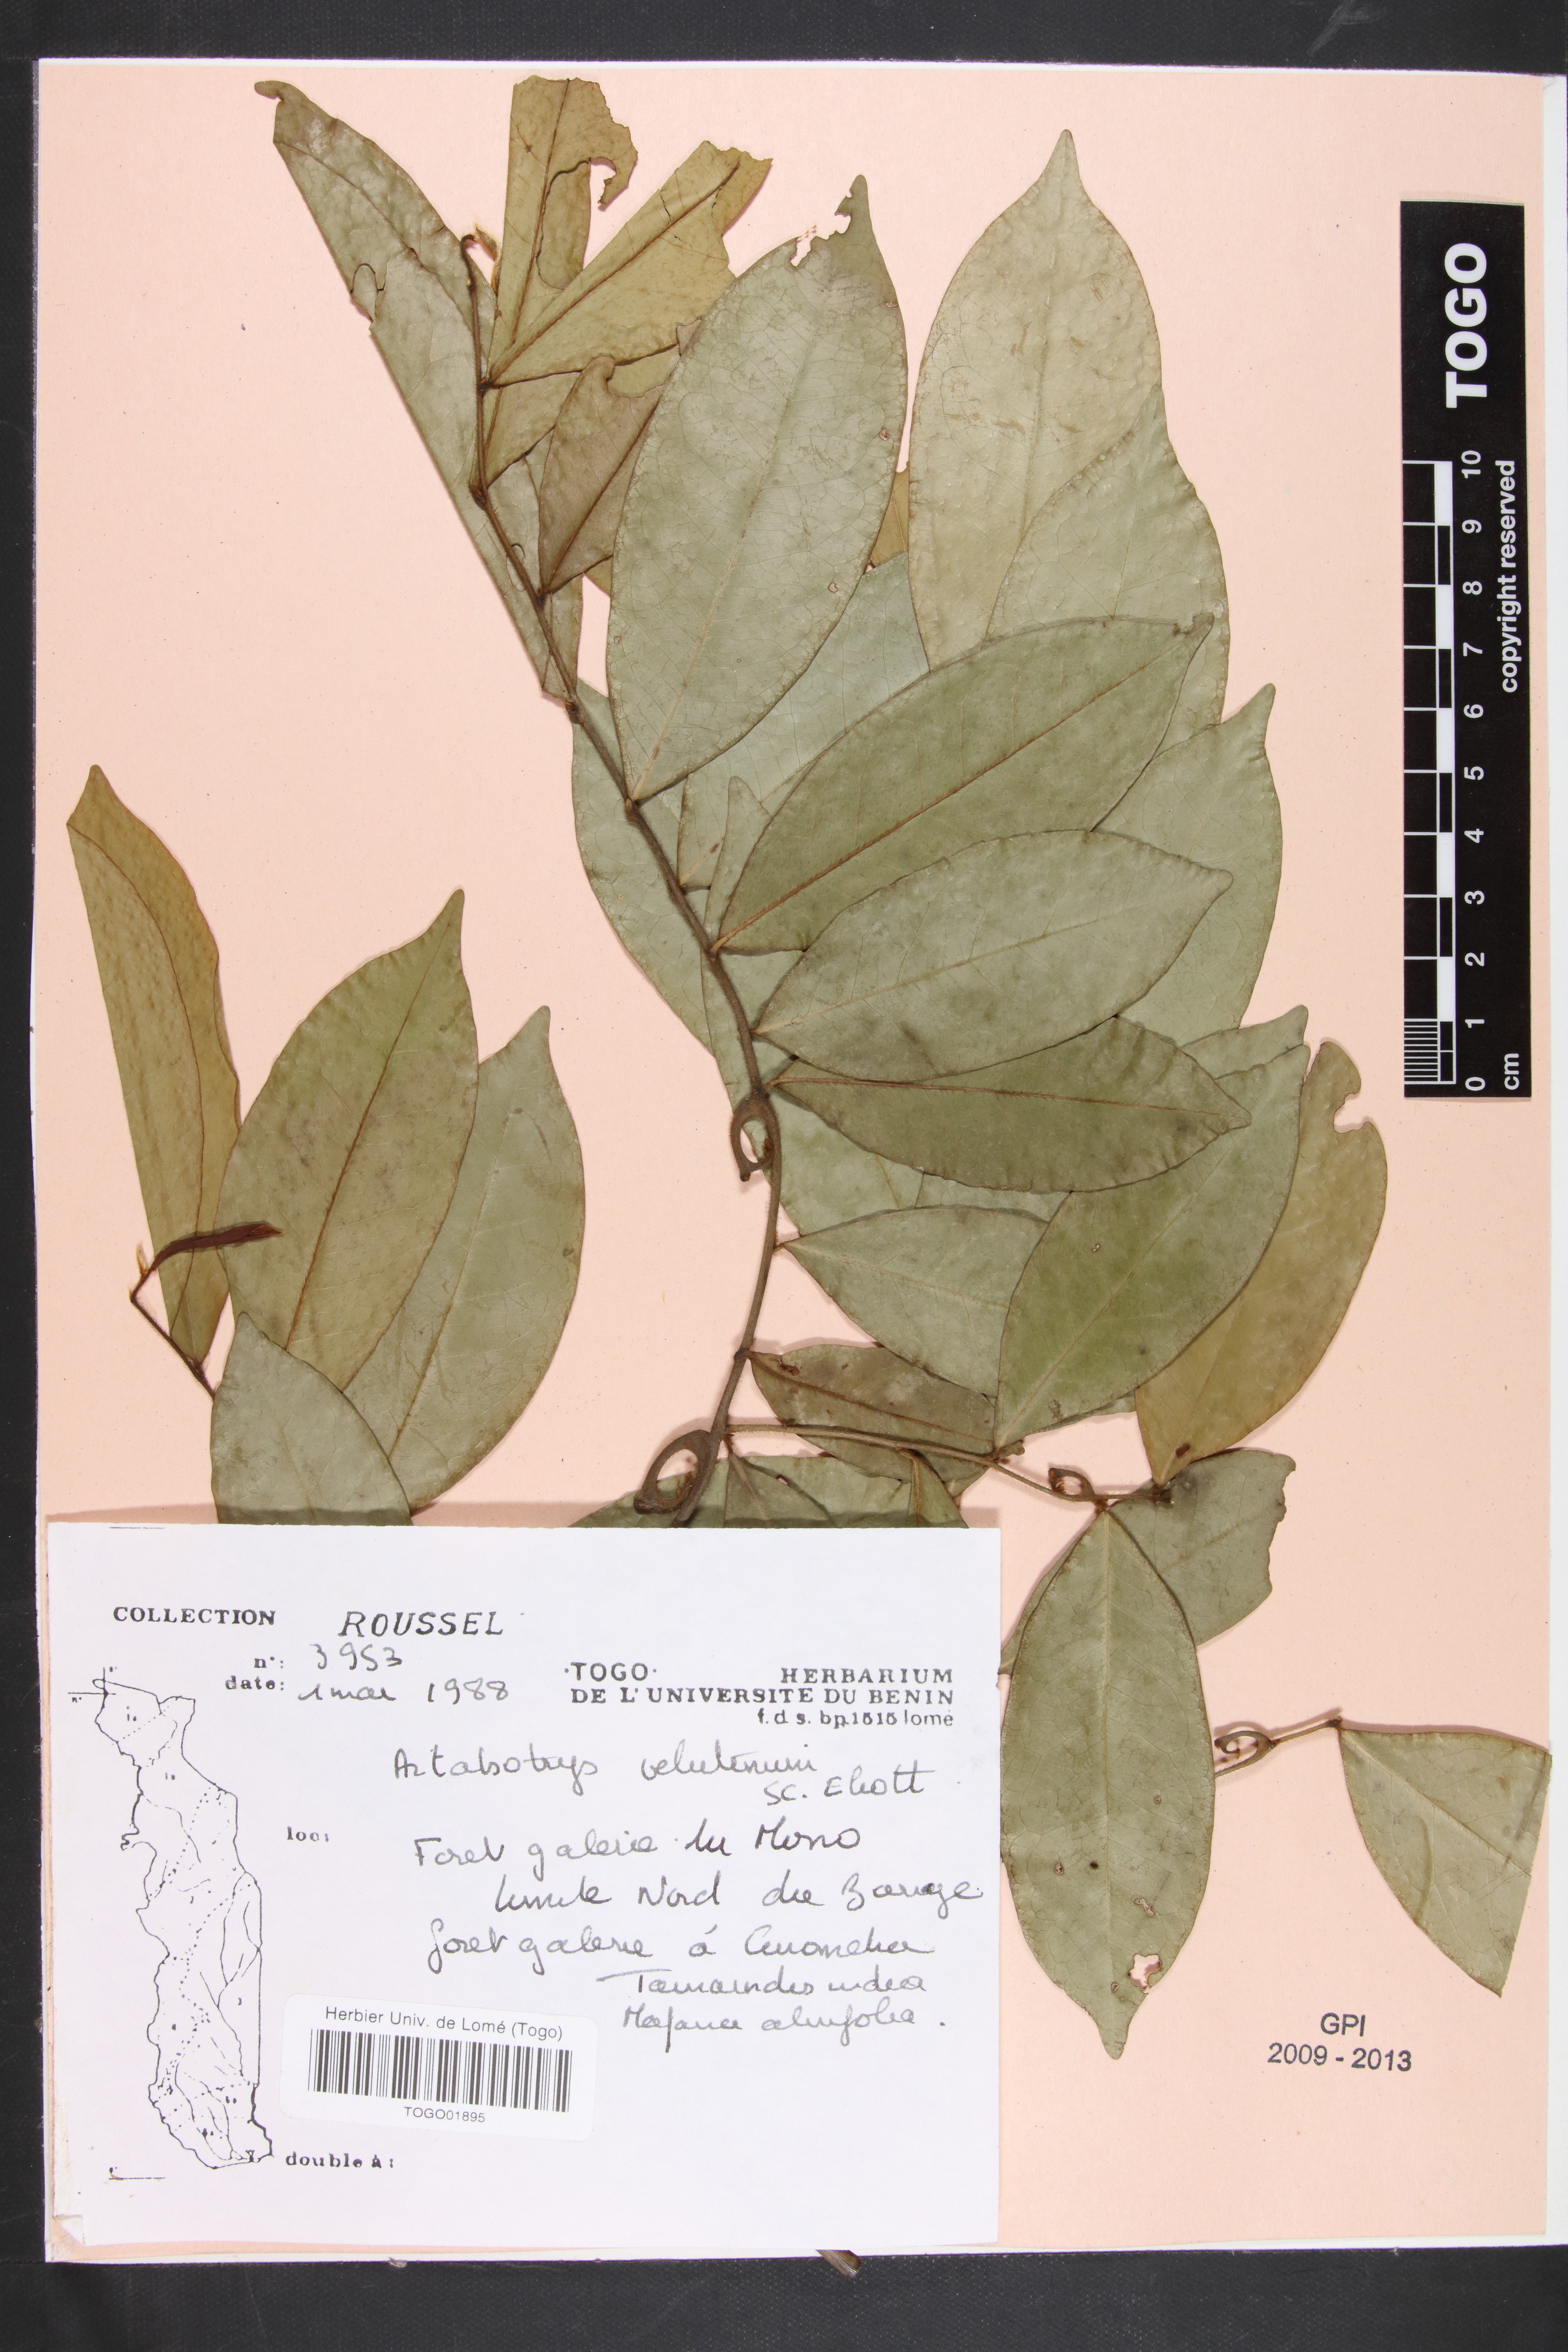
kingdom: Plantae
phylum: Tracheophyta
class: Magnoliopsida
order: Magnoliales
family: Annonaceae
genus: Artabotrys
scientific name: Artabotrys velutinus
